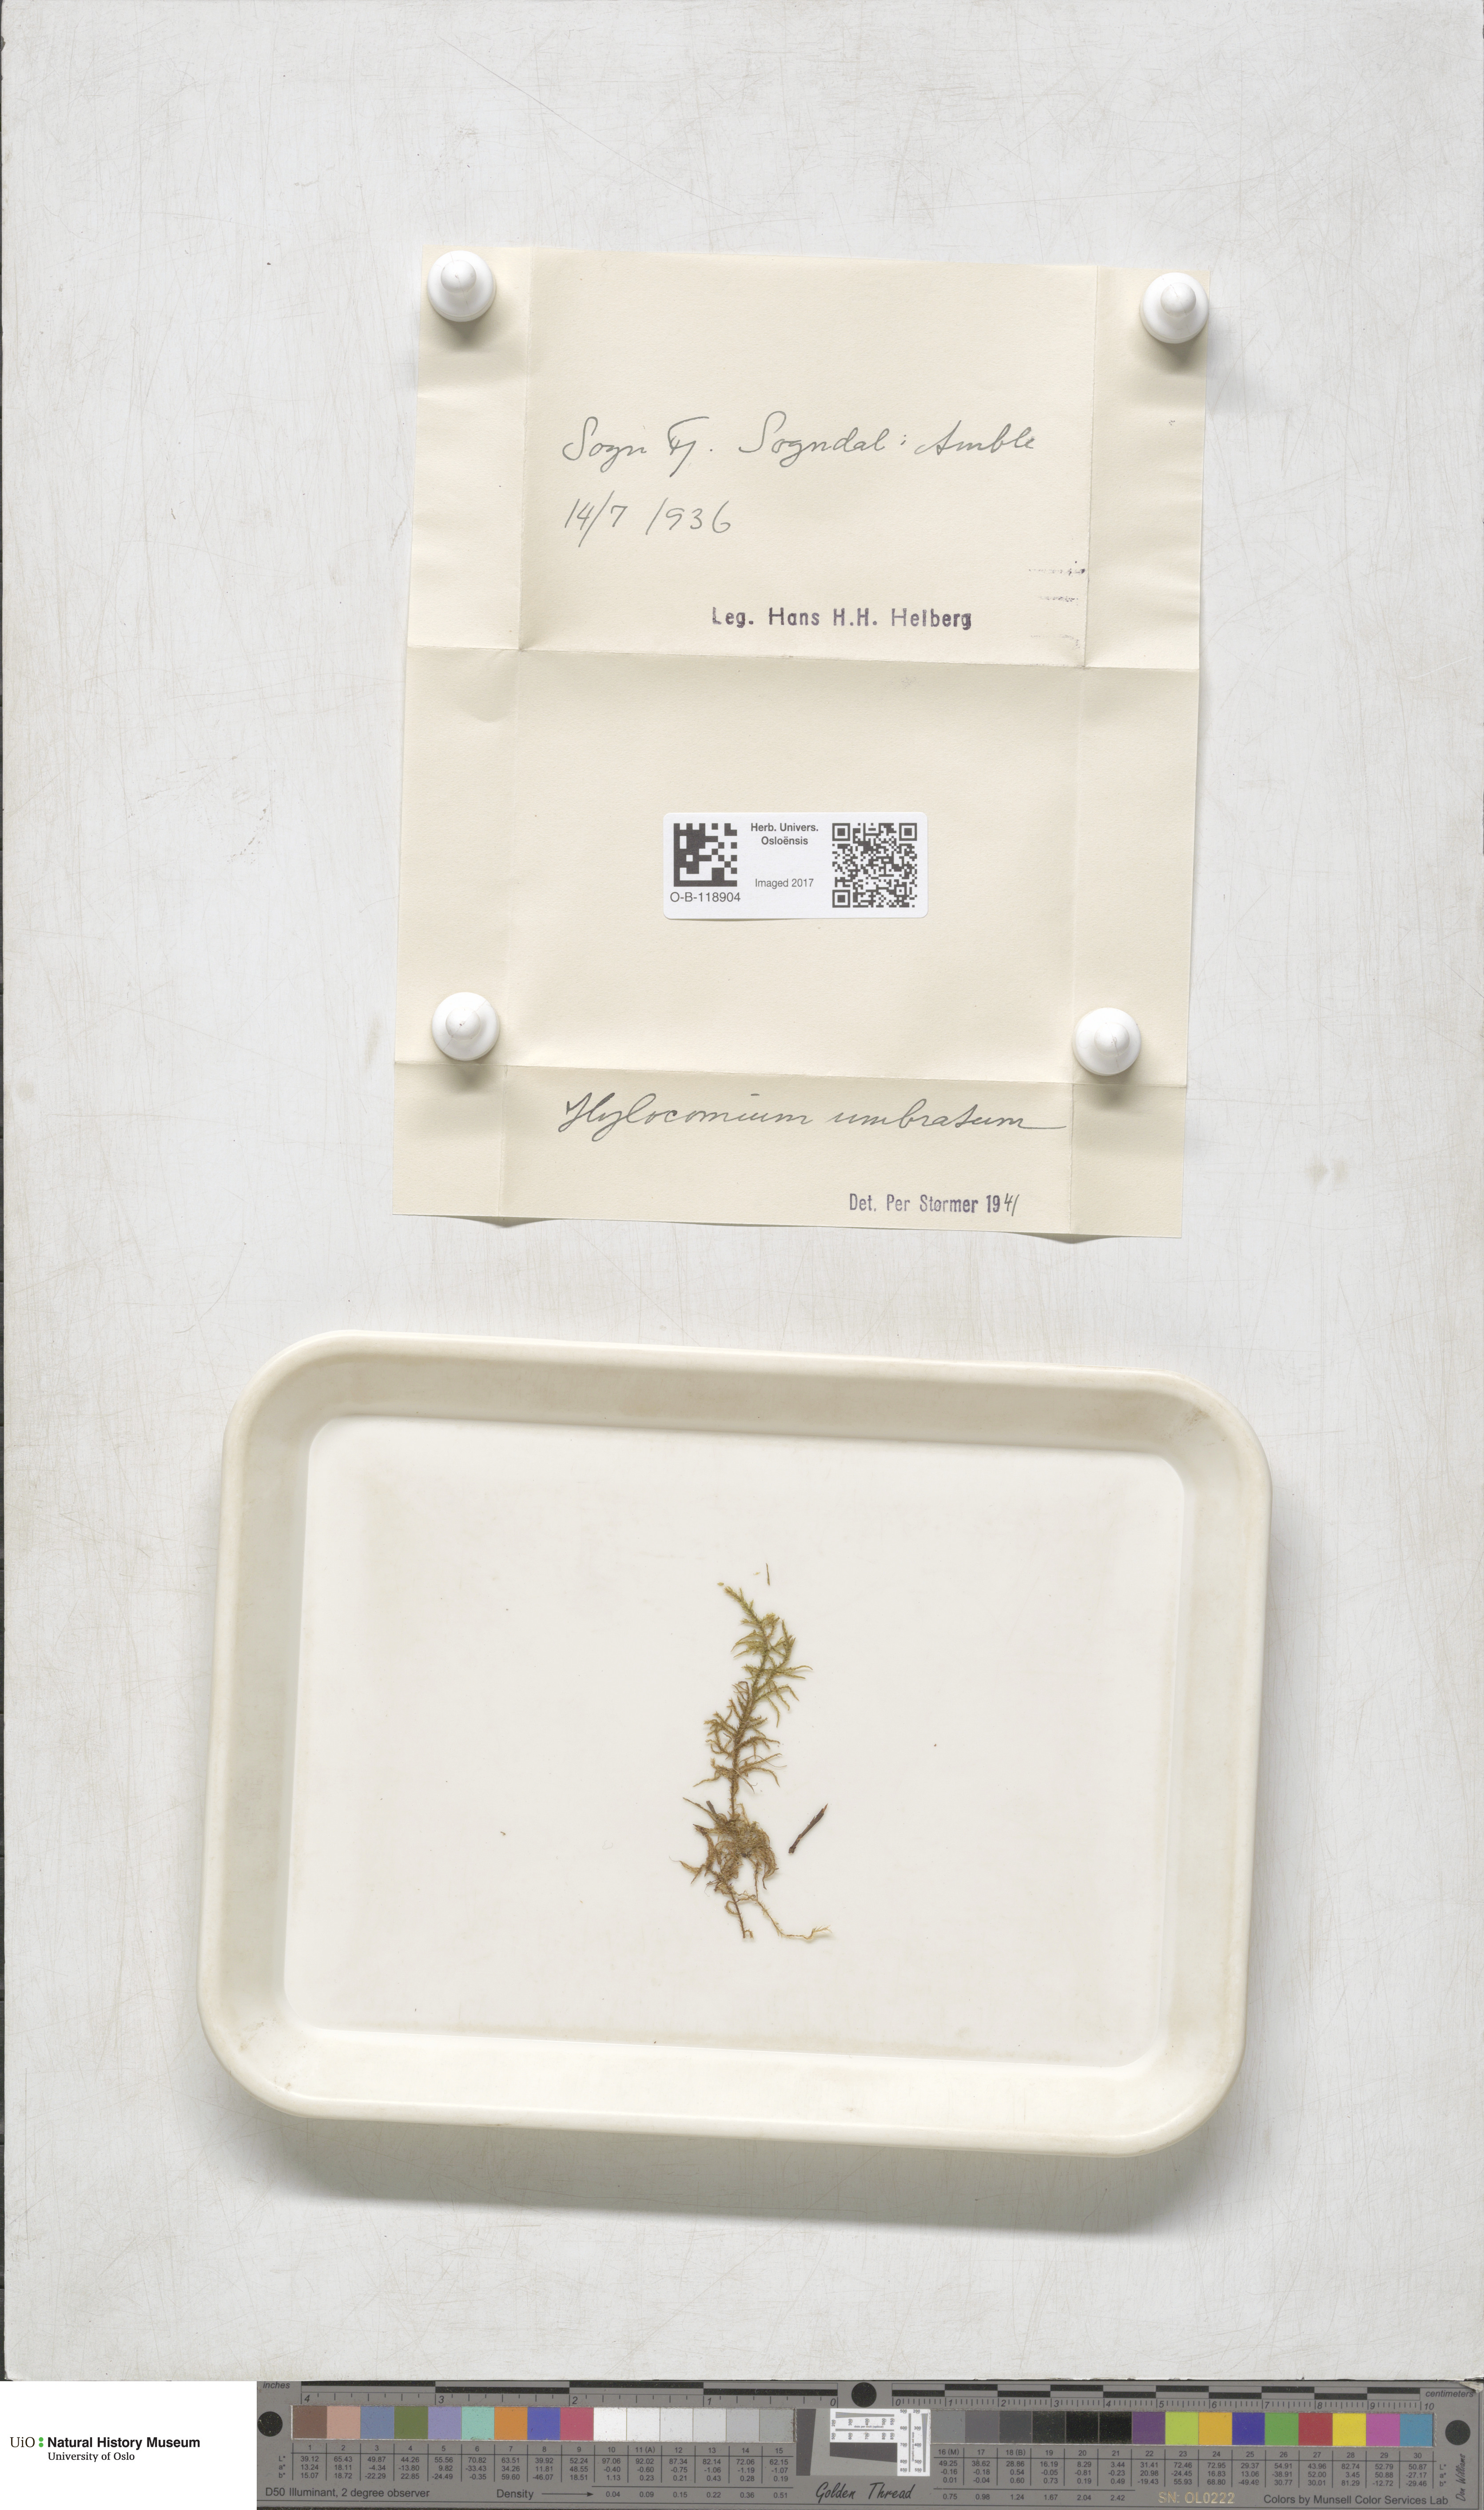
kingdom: Plantae
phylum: Bryophyta
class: Bryopsida
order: Hypnales
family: Hylocomiaceae
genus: Hylocomiastrum
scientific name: Hylocomiastrum umbratum
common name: Shaded woods moss
